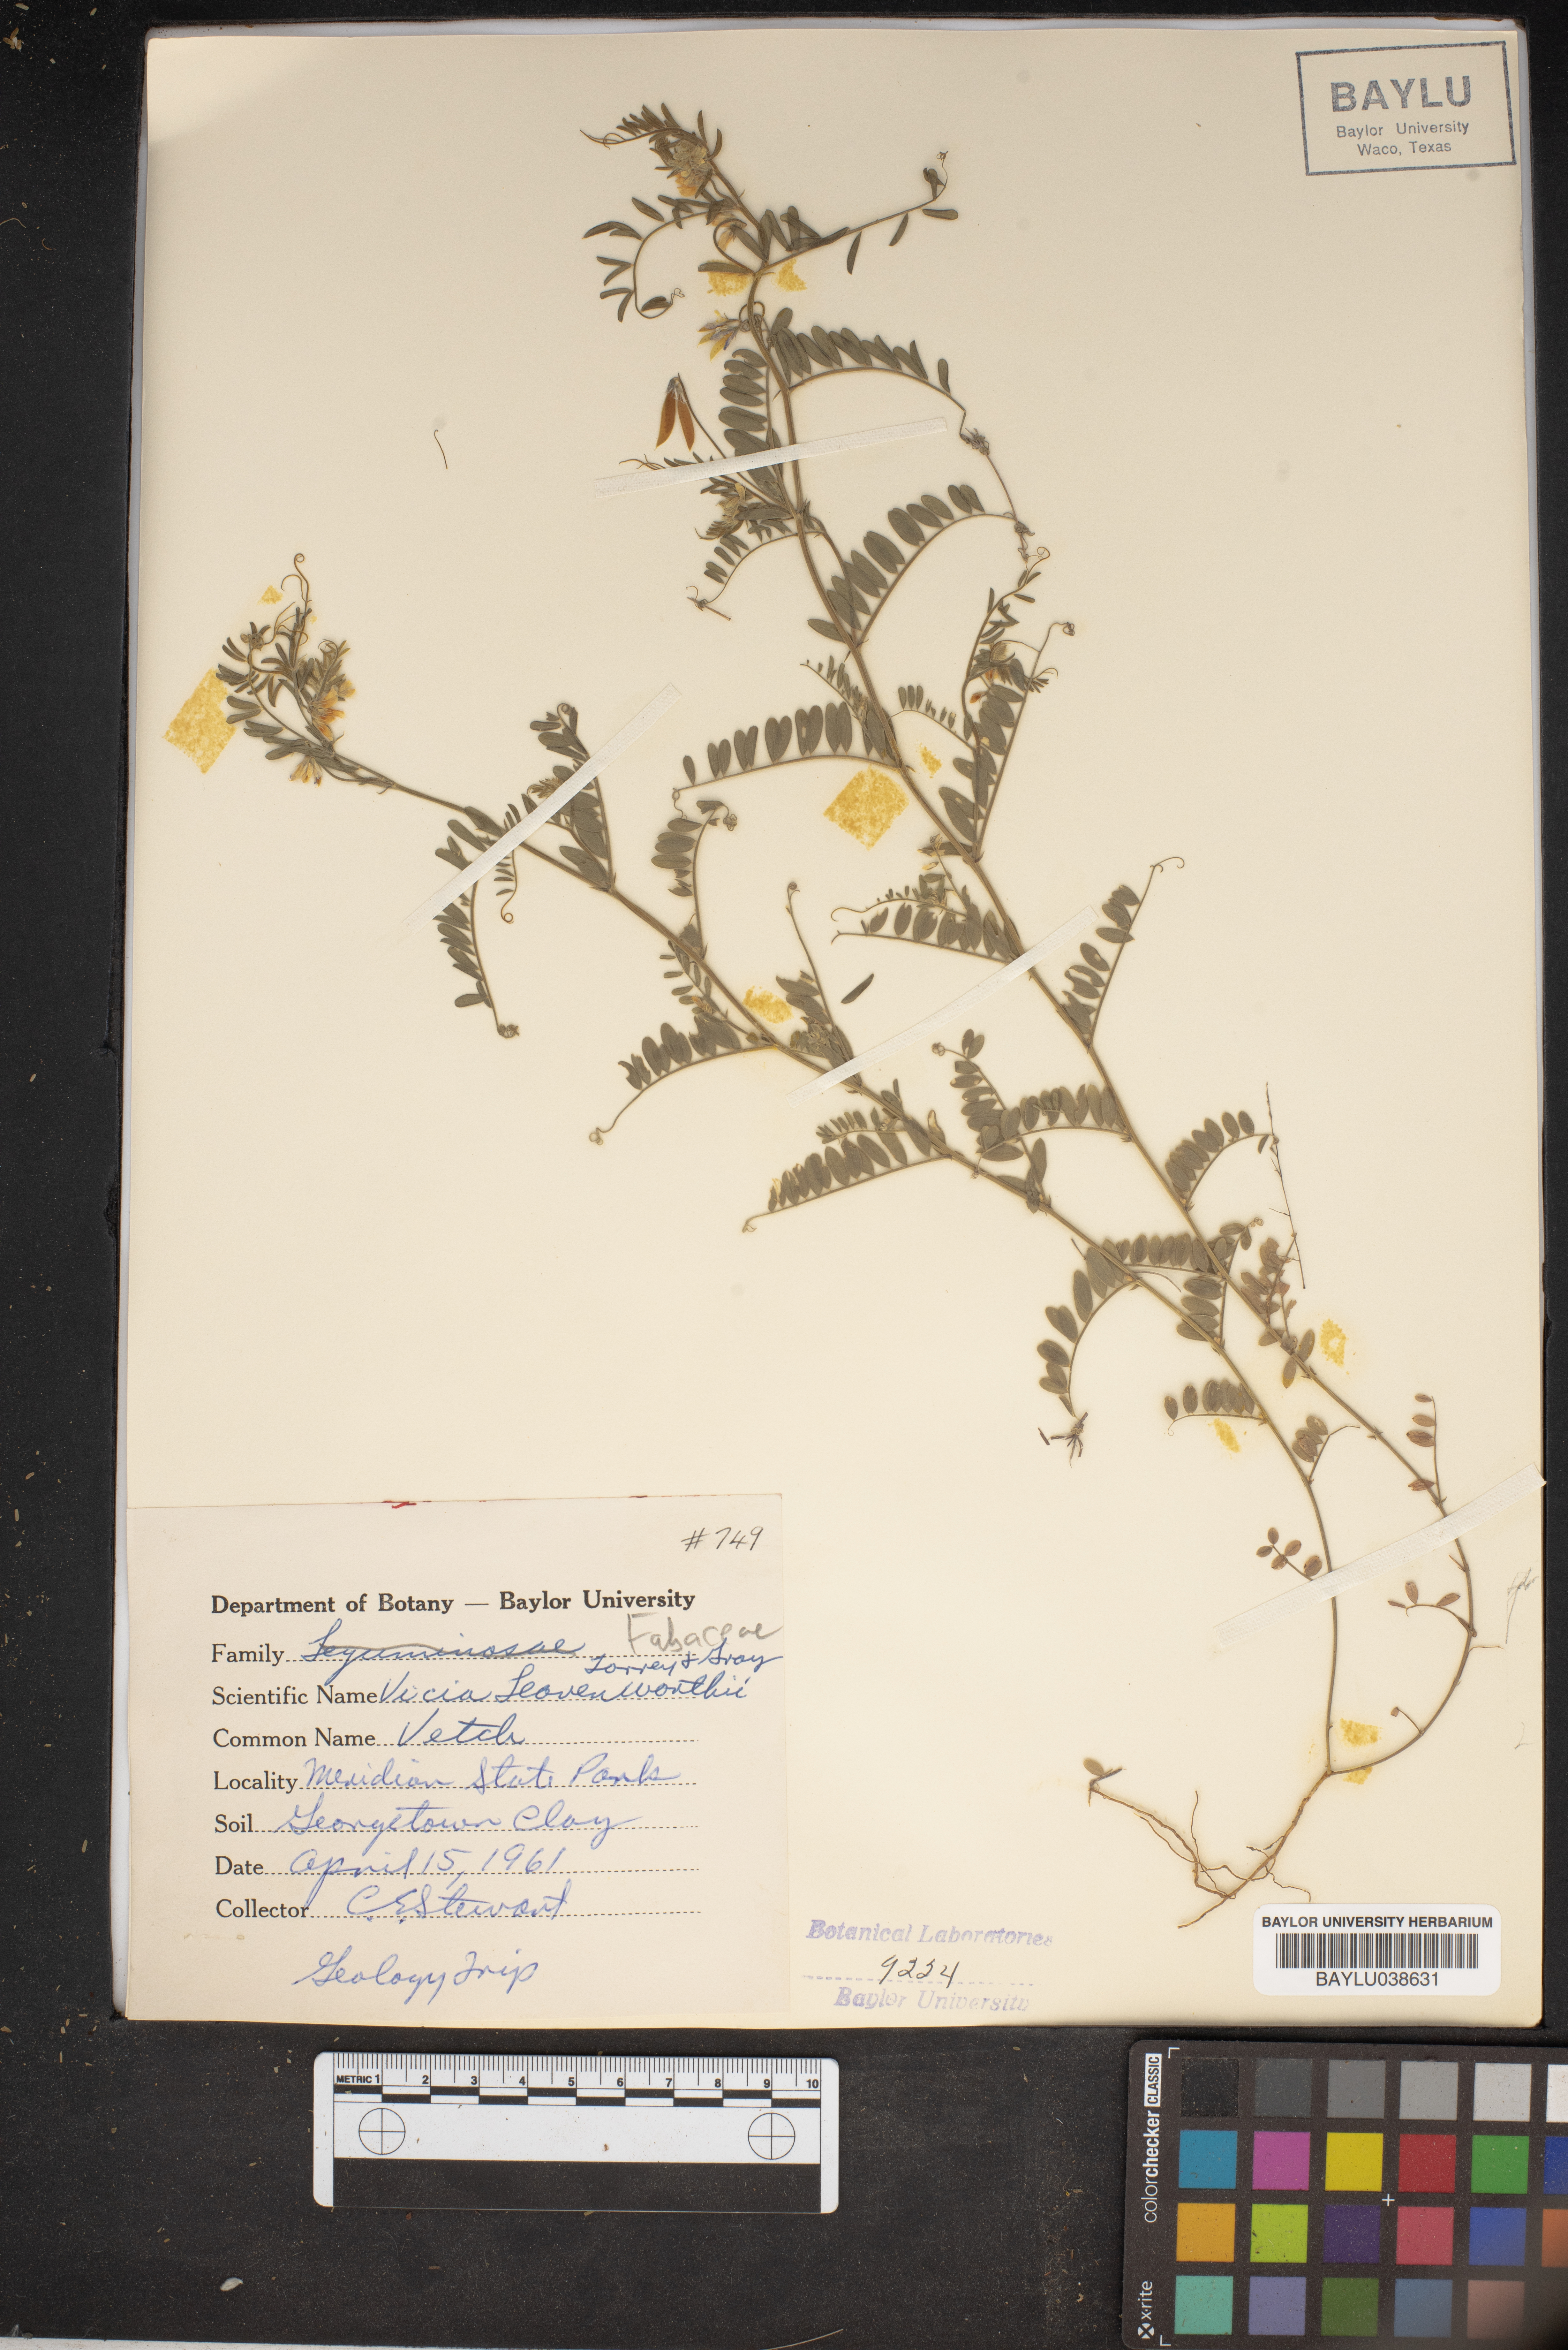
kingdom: Plantae
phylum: Tracheophyta
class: Magnoliopsida
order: Fabales
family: Fabaceae
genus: Vicia
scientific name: Vicia ludoviciana
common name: Louisiana vetch
